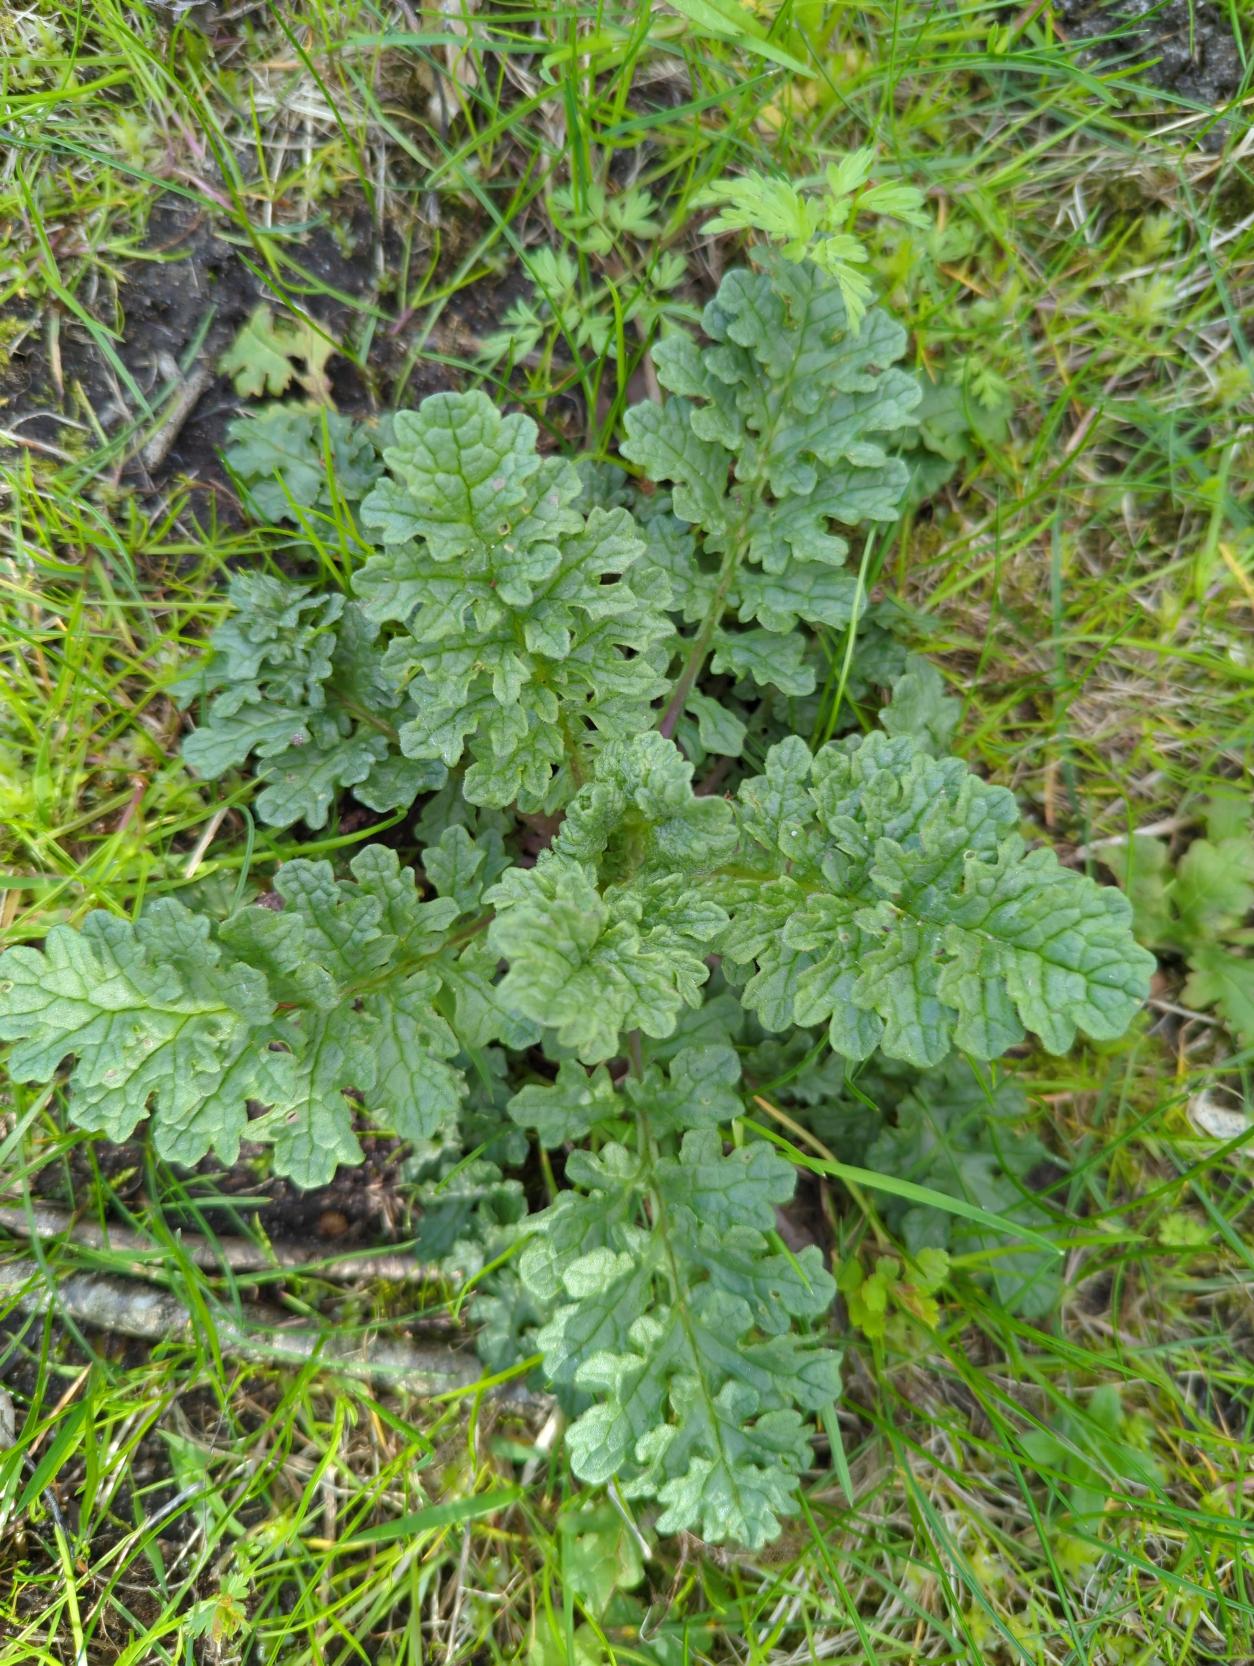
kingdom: Plantae
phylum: Tracheophyta
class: Magnoliopsida
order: Asterales
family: Asteraceae
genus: Jacobaea
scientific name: Jacobaea vulgaris
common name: Eng-brandbæger
